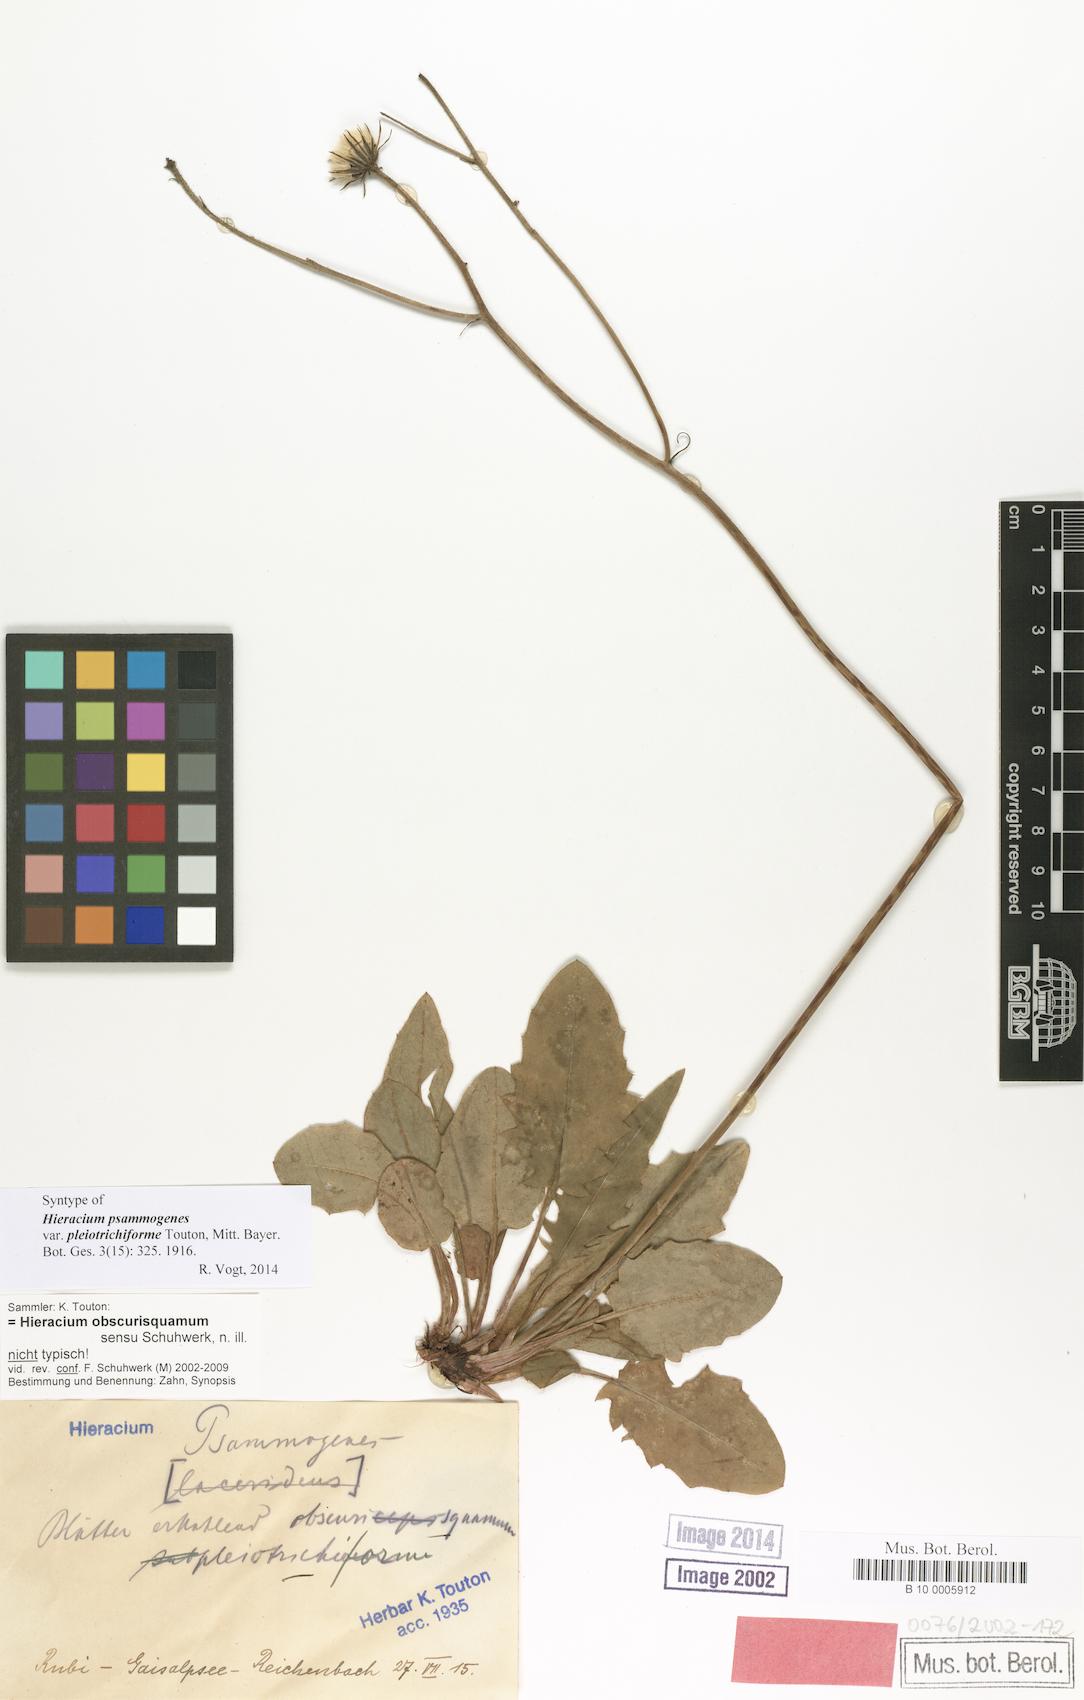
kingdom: Plantae
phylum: Tracheophyta
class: Magnoliopsida
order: Asterales
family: Asteraceae
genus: Hieracium
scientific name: Hieracium psammogenes
